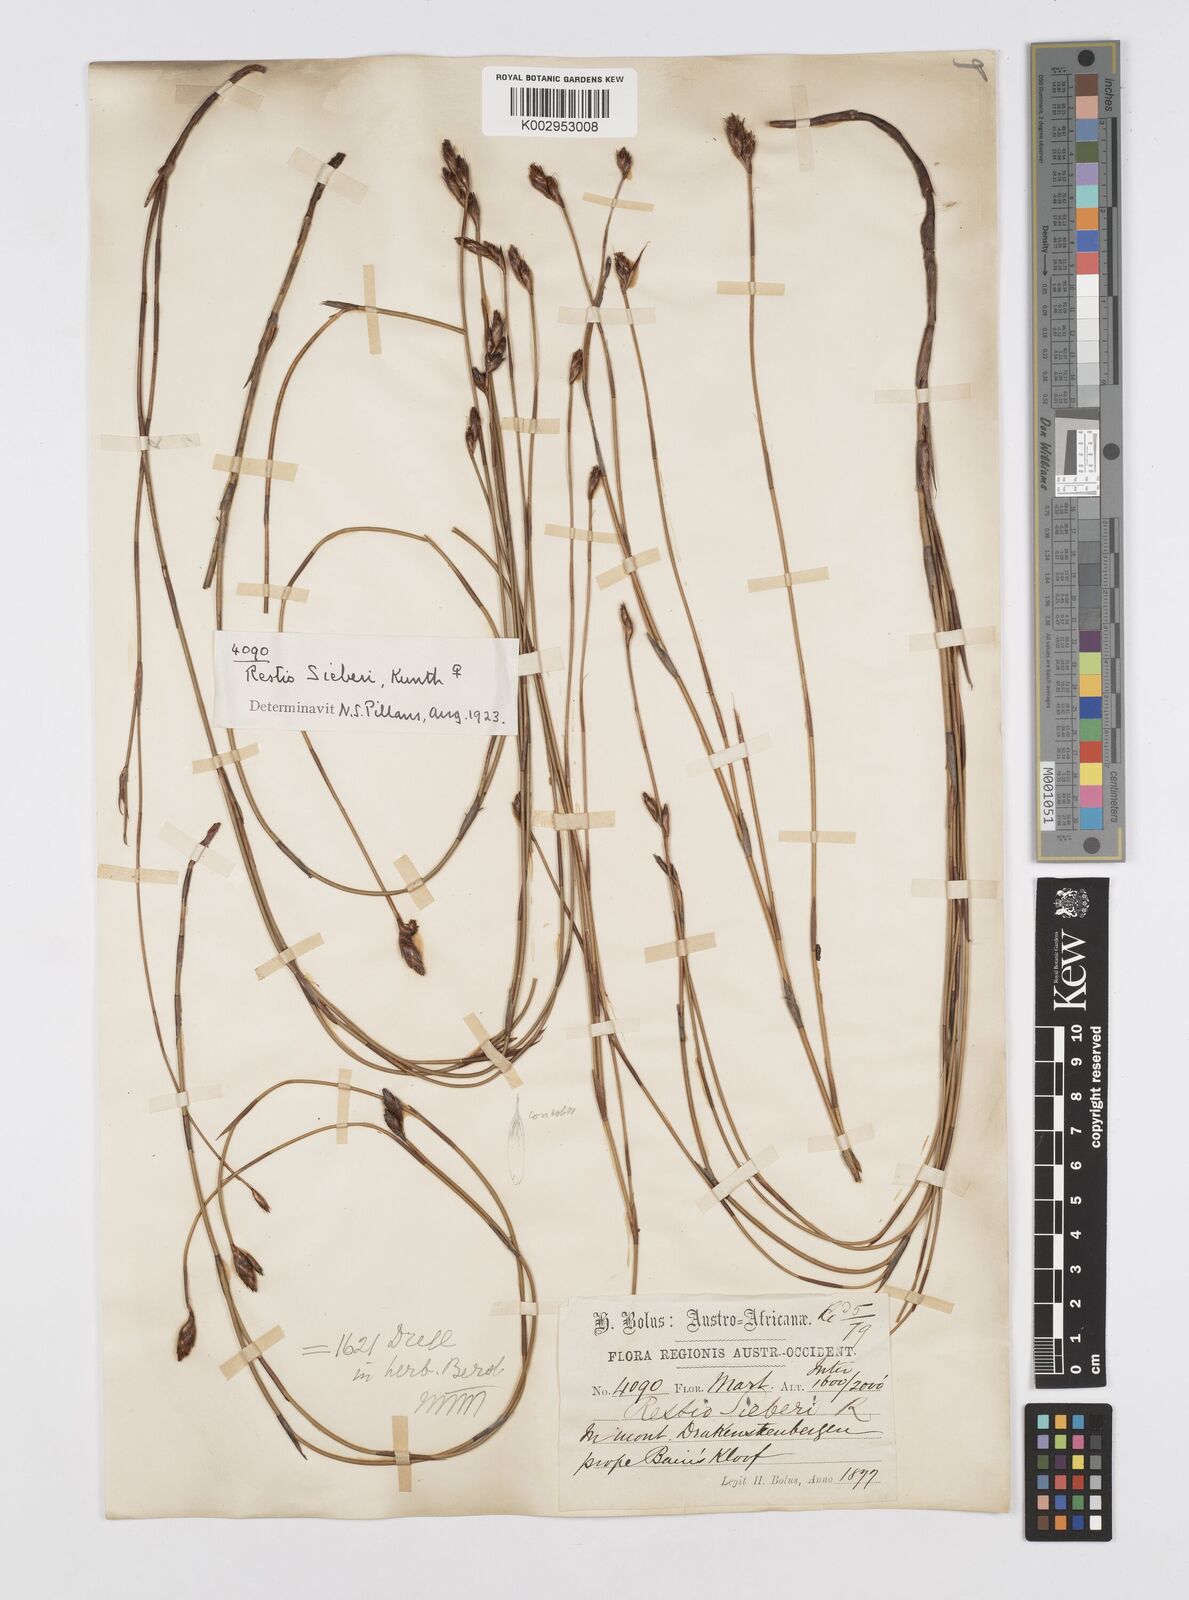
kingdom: Plantae
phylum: Tracheophyta
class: Liliopsida
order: Poales
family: Restionaceae
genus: Restio
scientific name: Restio sieberi
